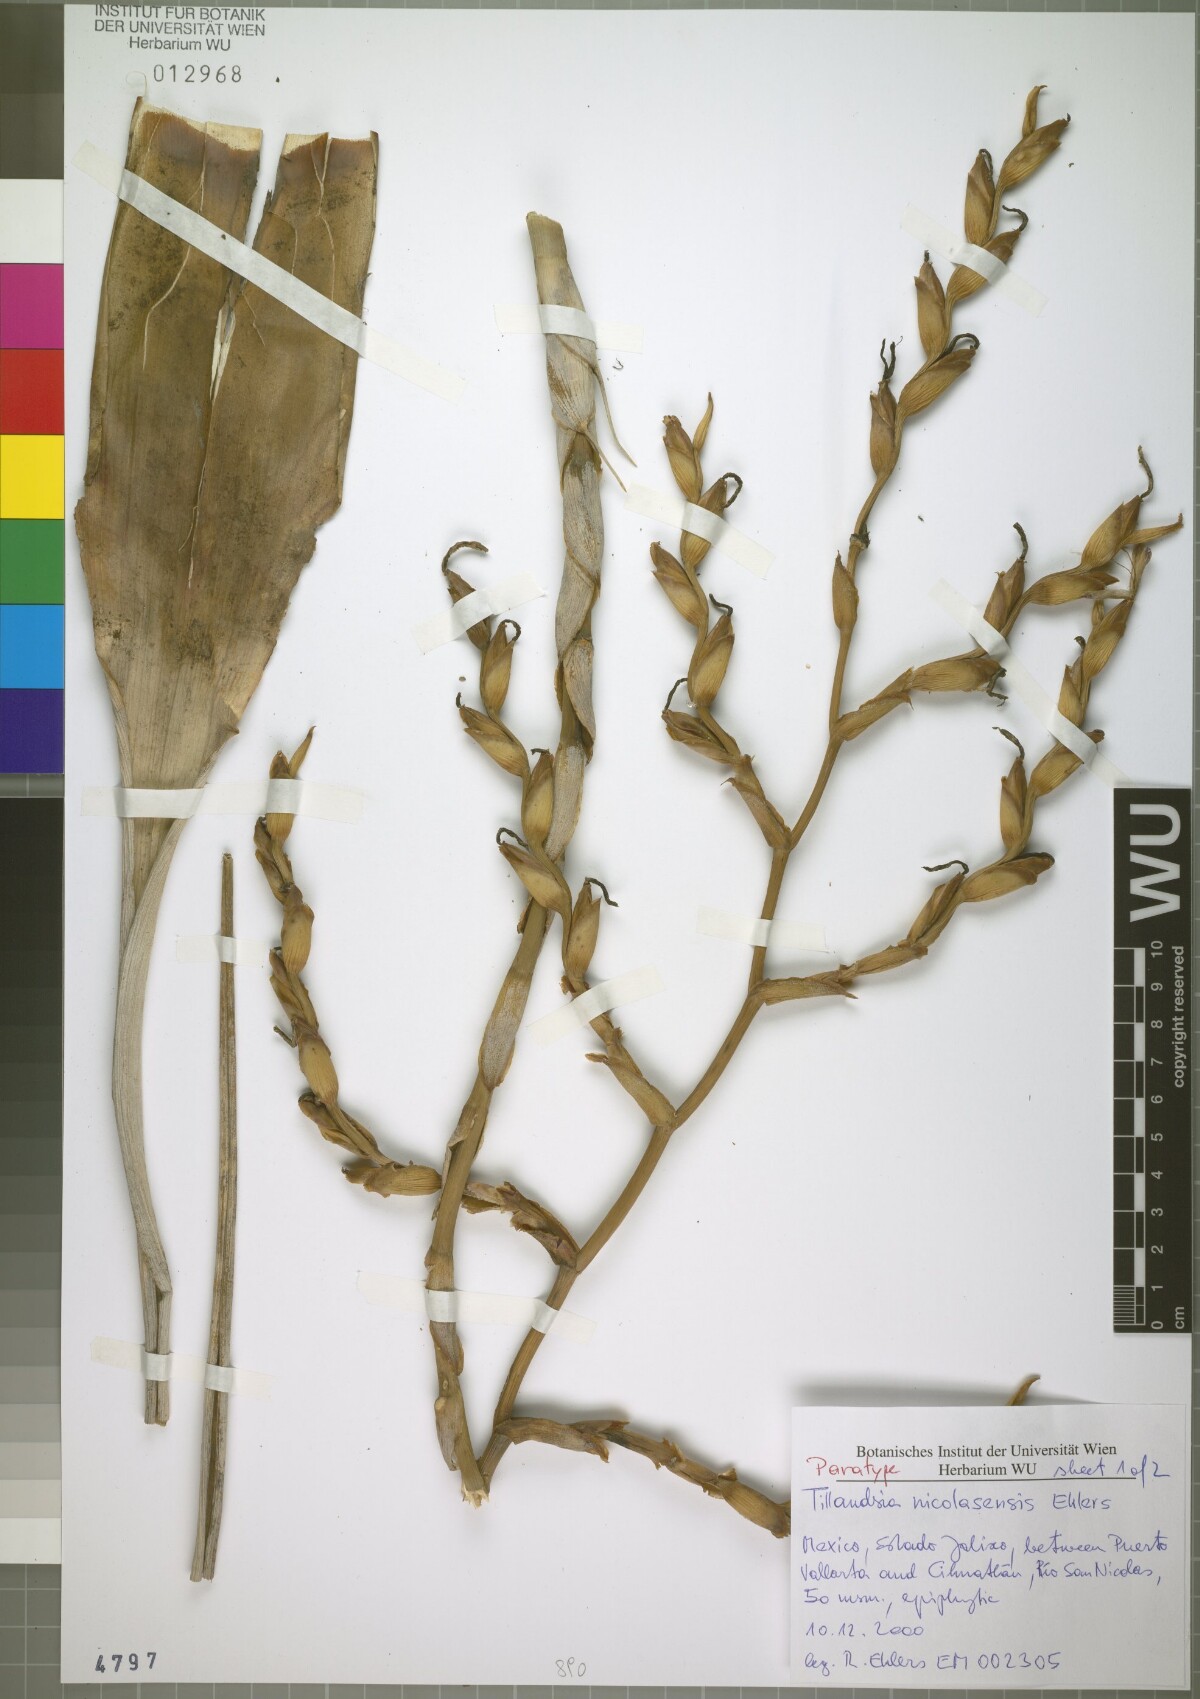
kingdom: Plantae
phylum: Tracheophyta
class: Liliopsida
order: Poales
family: Bromeliaceae
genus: Tillandsia
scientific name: Tillandsia nicolasensis
